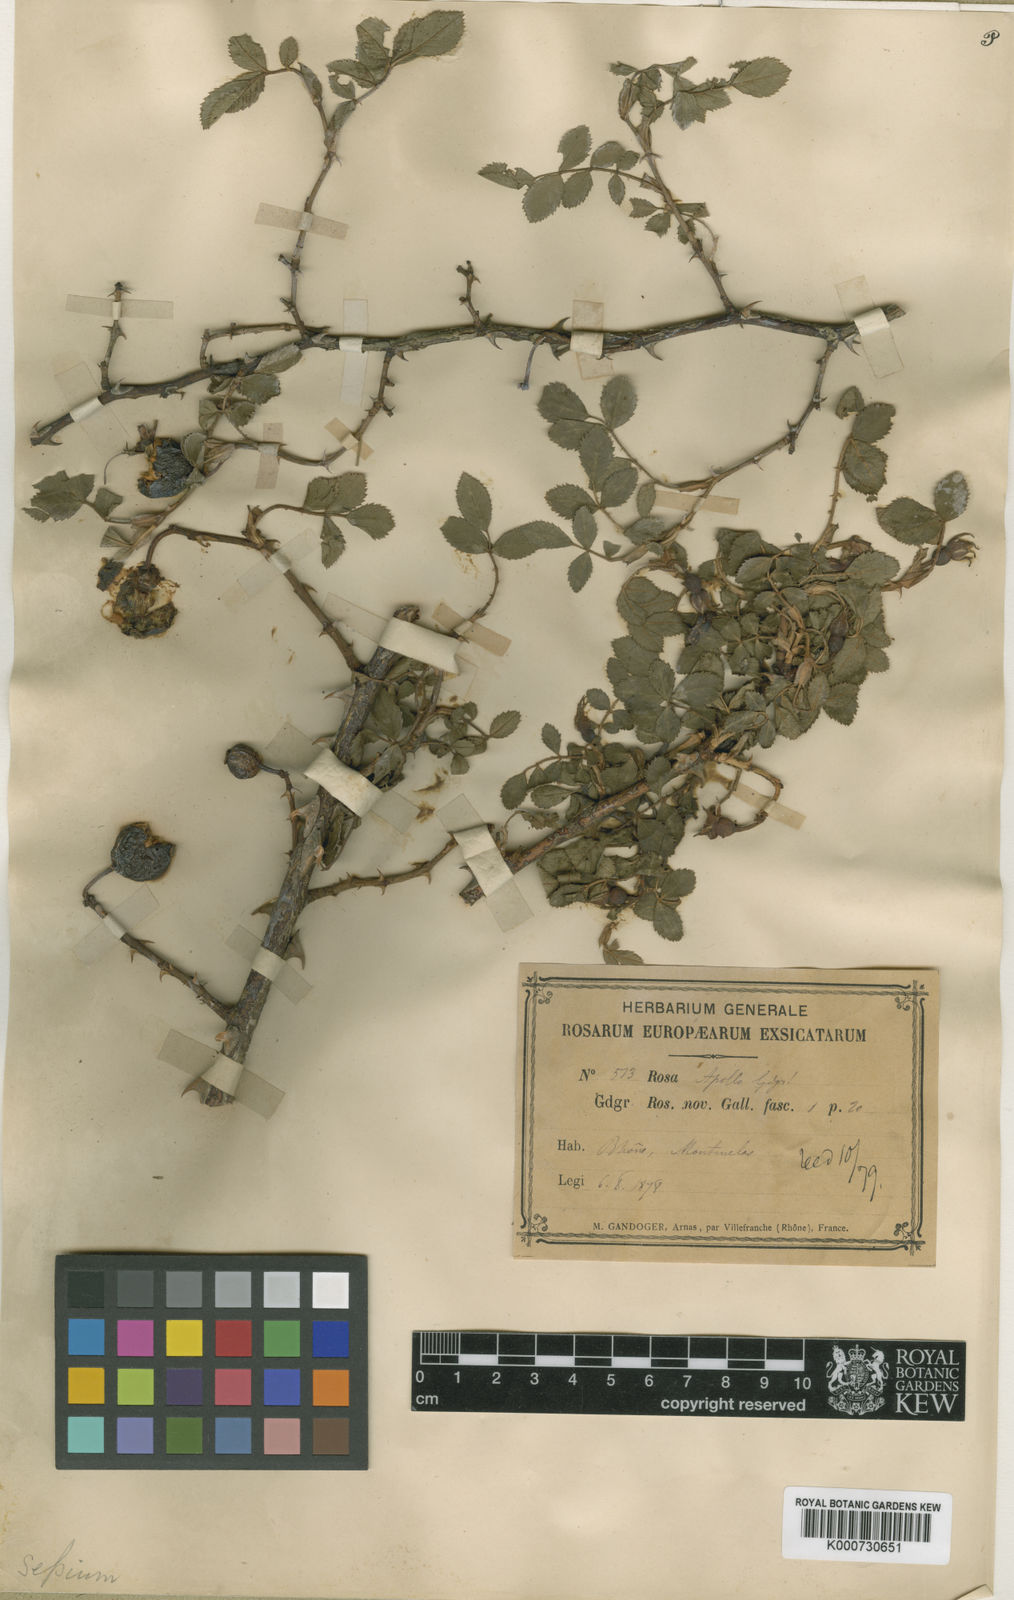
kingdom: Plantae
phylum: Tracheophyta
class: Magnoliopsida
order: Rosales
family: Rosaceae
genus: Rosa
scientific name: Rosa agrestis
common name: Fieldbriar
